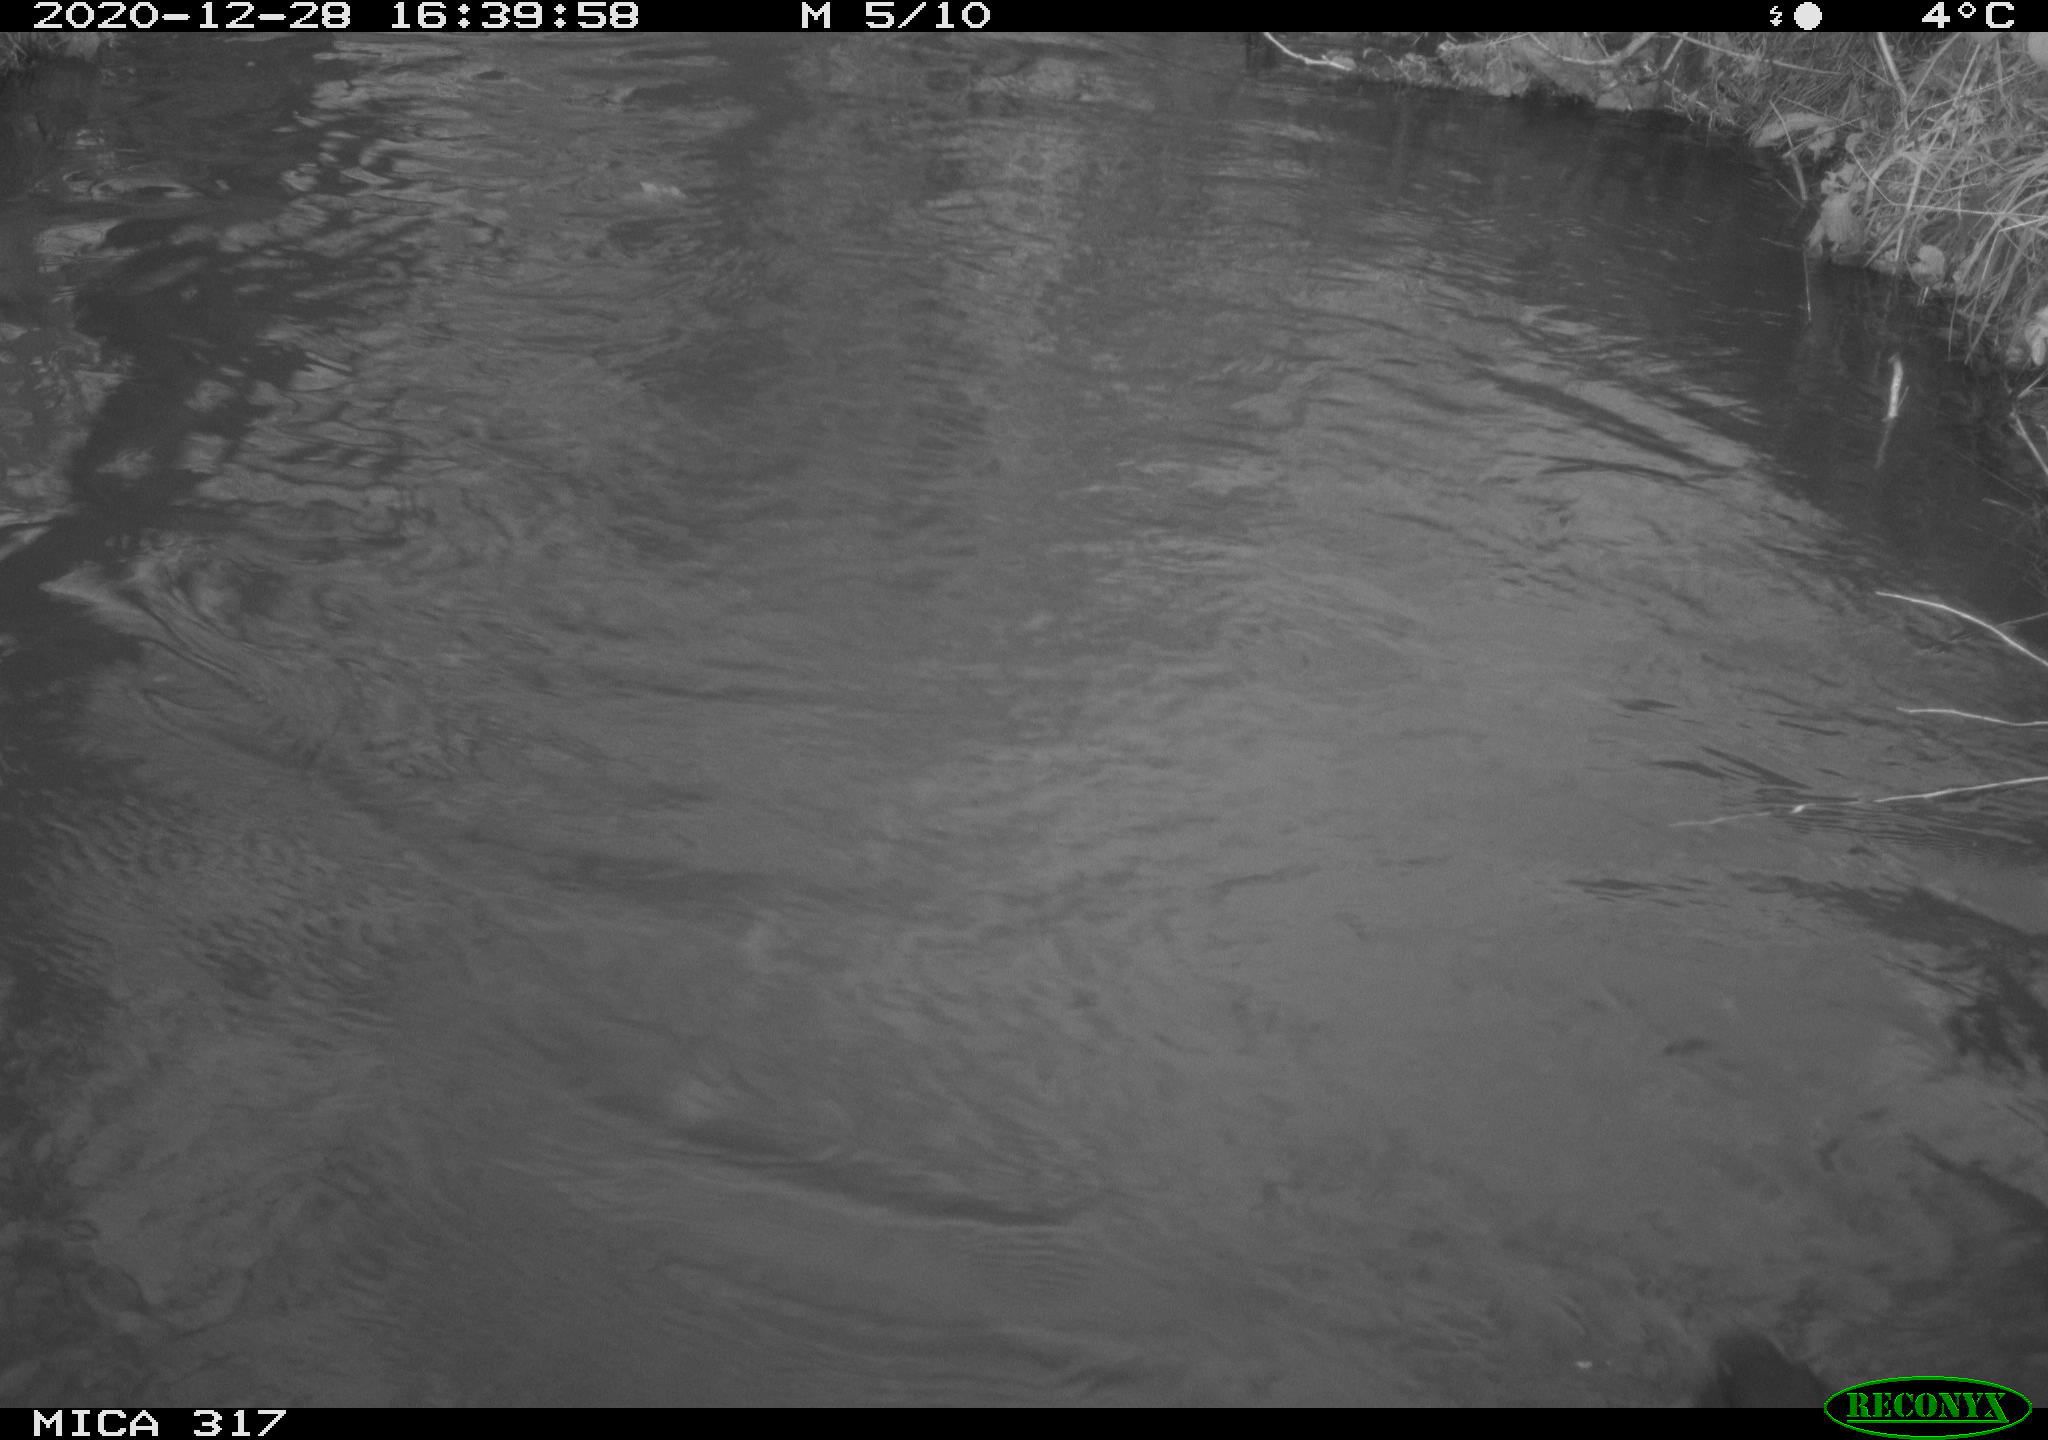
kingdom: Animalia
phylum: Chordata
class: Aves
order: Gruiformes
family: Rallidae
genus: Fulica
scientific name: Fulica atra
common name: Eurasian coot
